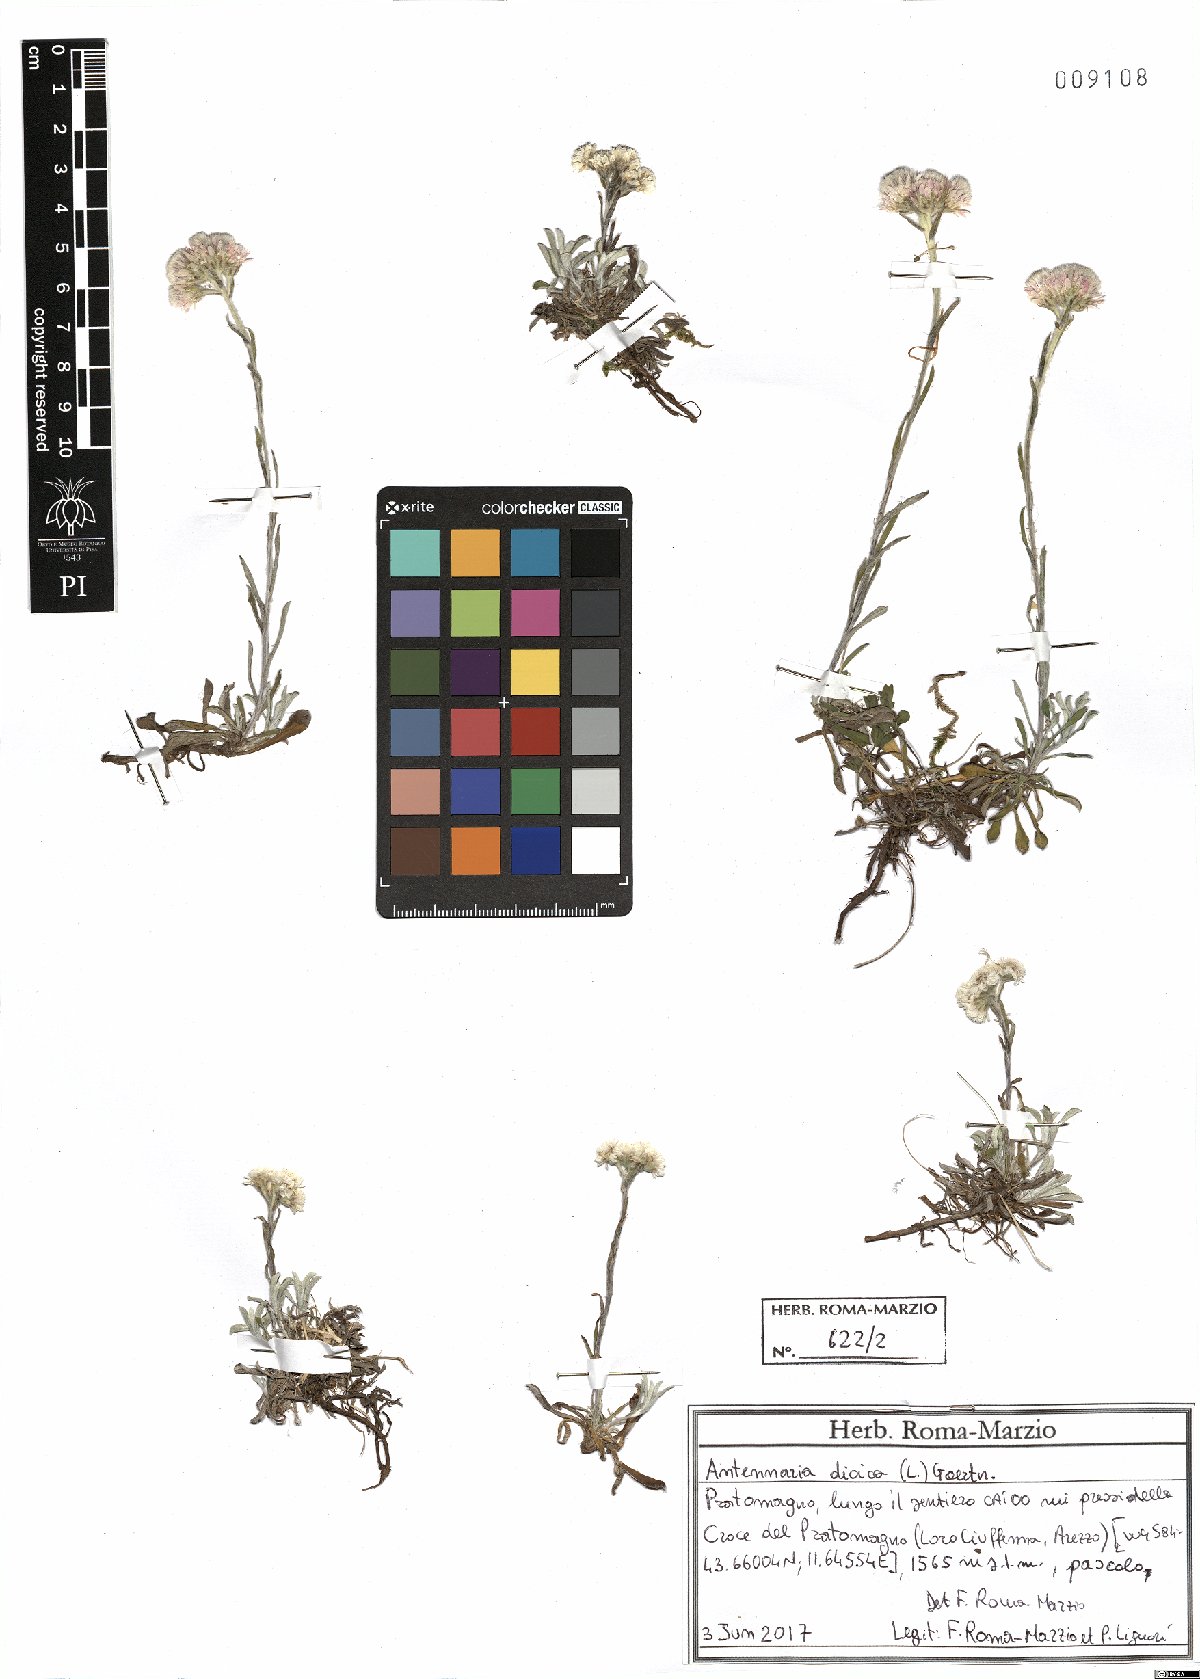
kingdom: Plantae
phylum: Tracheophyta
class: Magnoliopsida
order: Asterales
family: Asteraceae
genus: Antennaria
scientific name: Antennaria dioica
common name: Mountain everlasting
